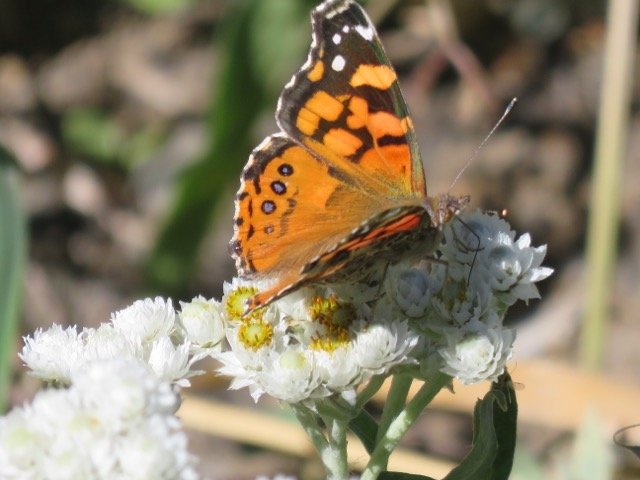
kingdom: Animalia
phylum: Arthropoda
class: Insecta
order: Lepidoptera
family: Nymphalidae
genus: Vanessa
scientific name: Vanessa annabella
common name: West Coast Lady
